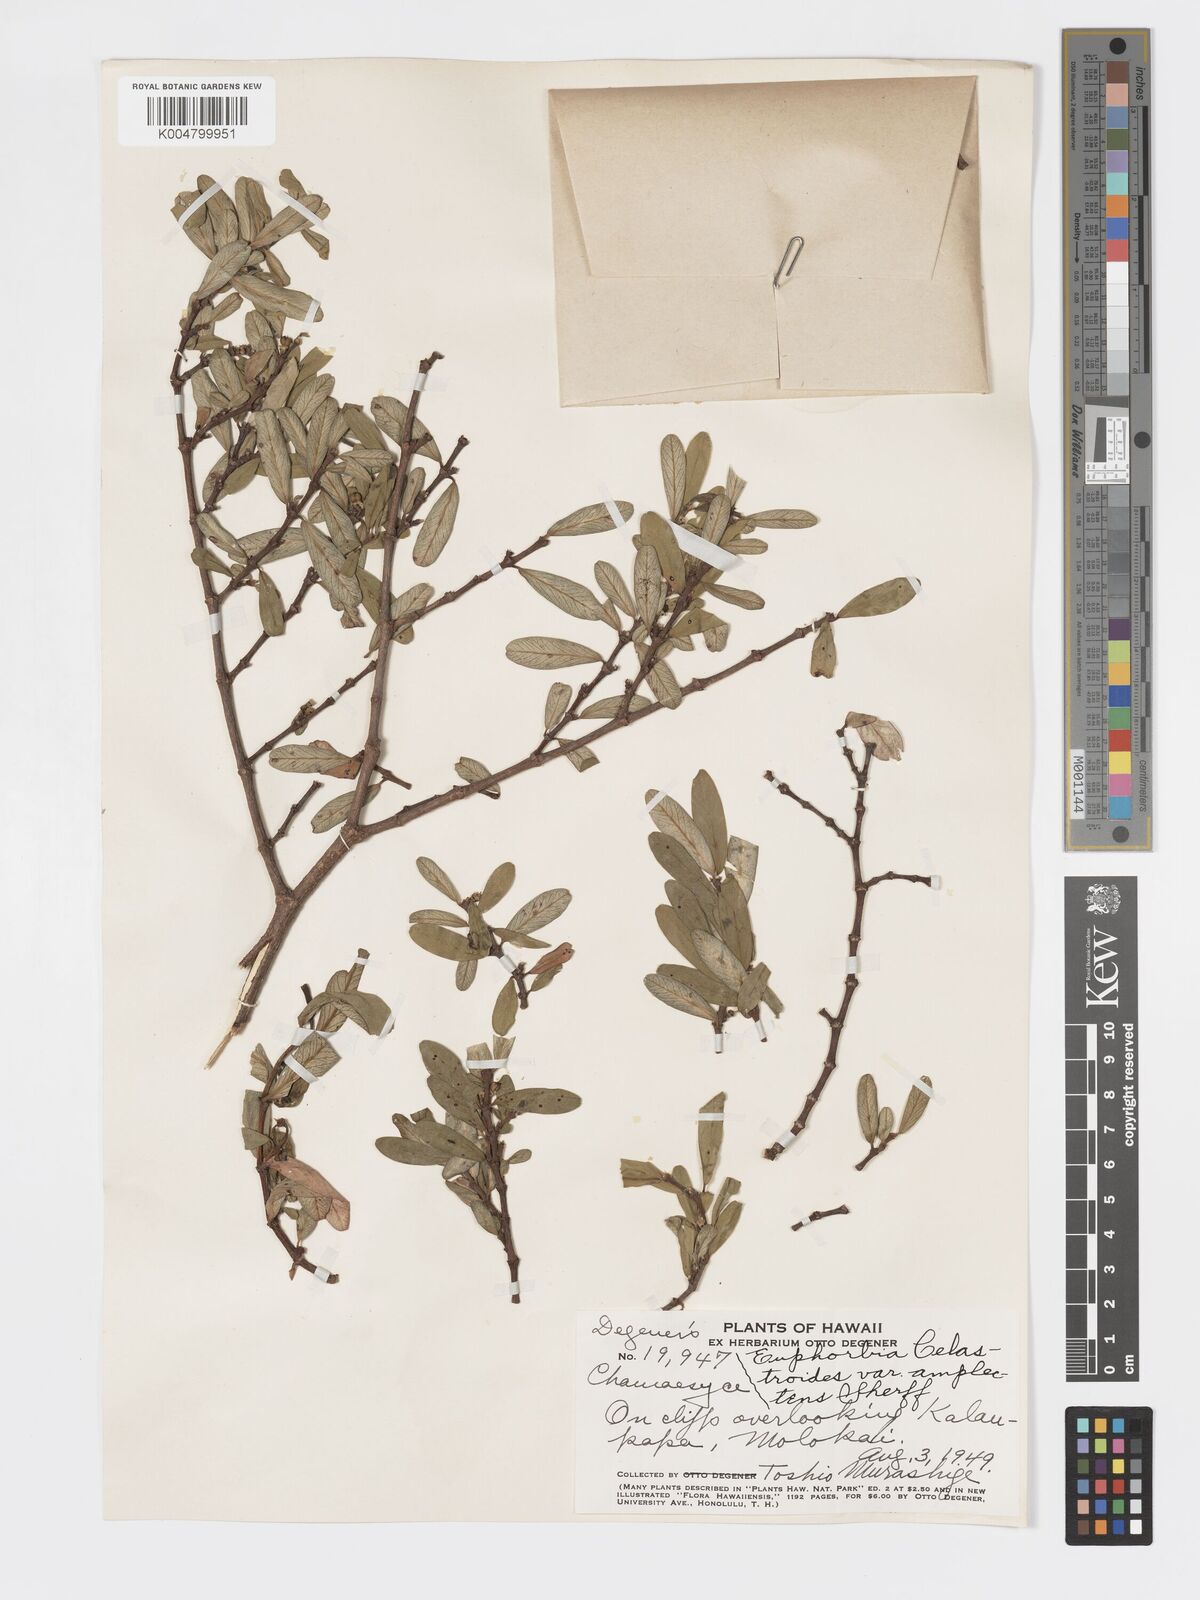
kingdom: Plantae
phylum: Tracheophyta
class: Magnoliopsida
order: Malpighiales
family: Euphorbiaceae
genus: Euphorbia
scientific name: Euphorbia celastroides
